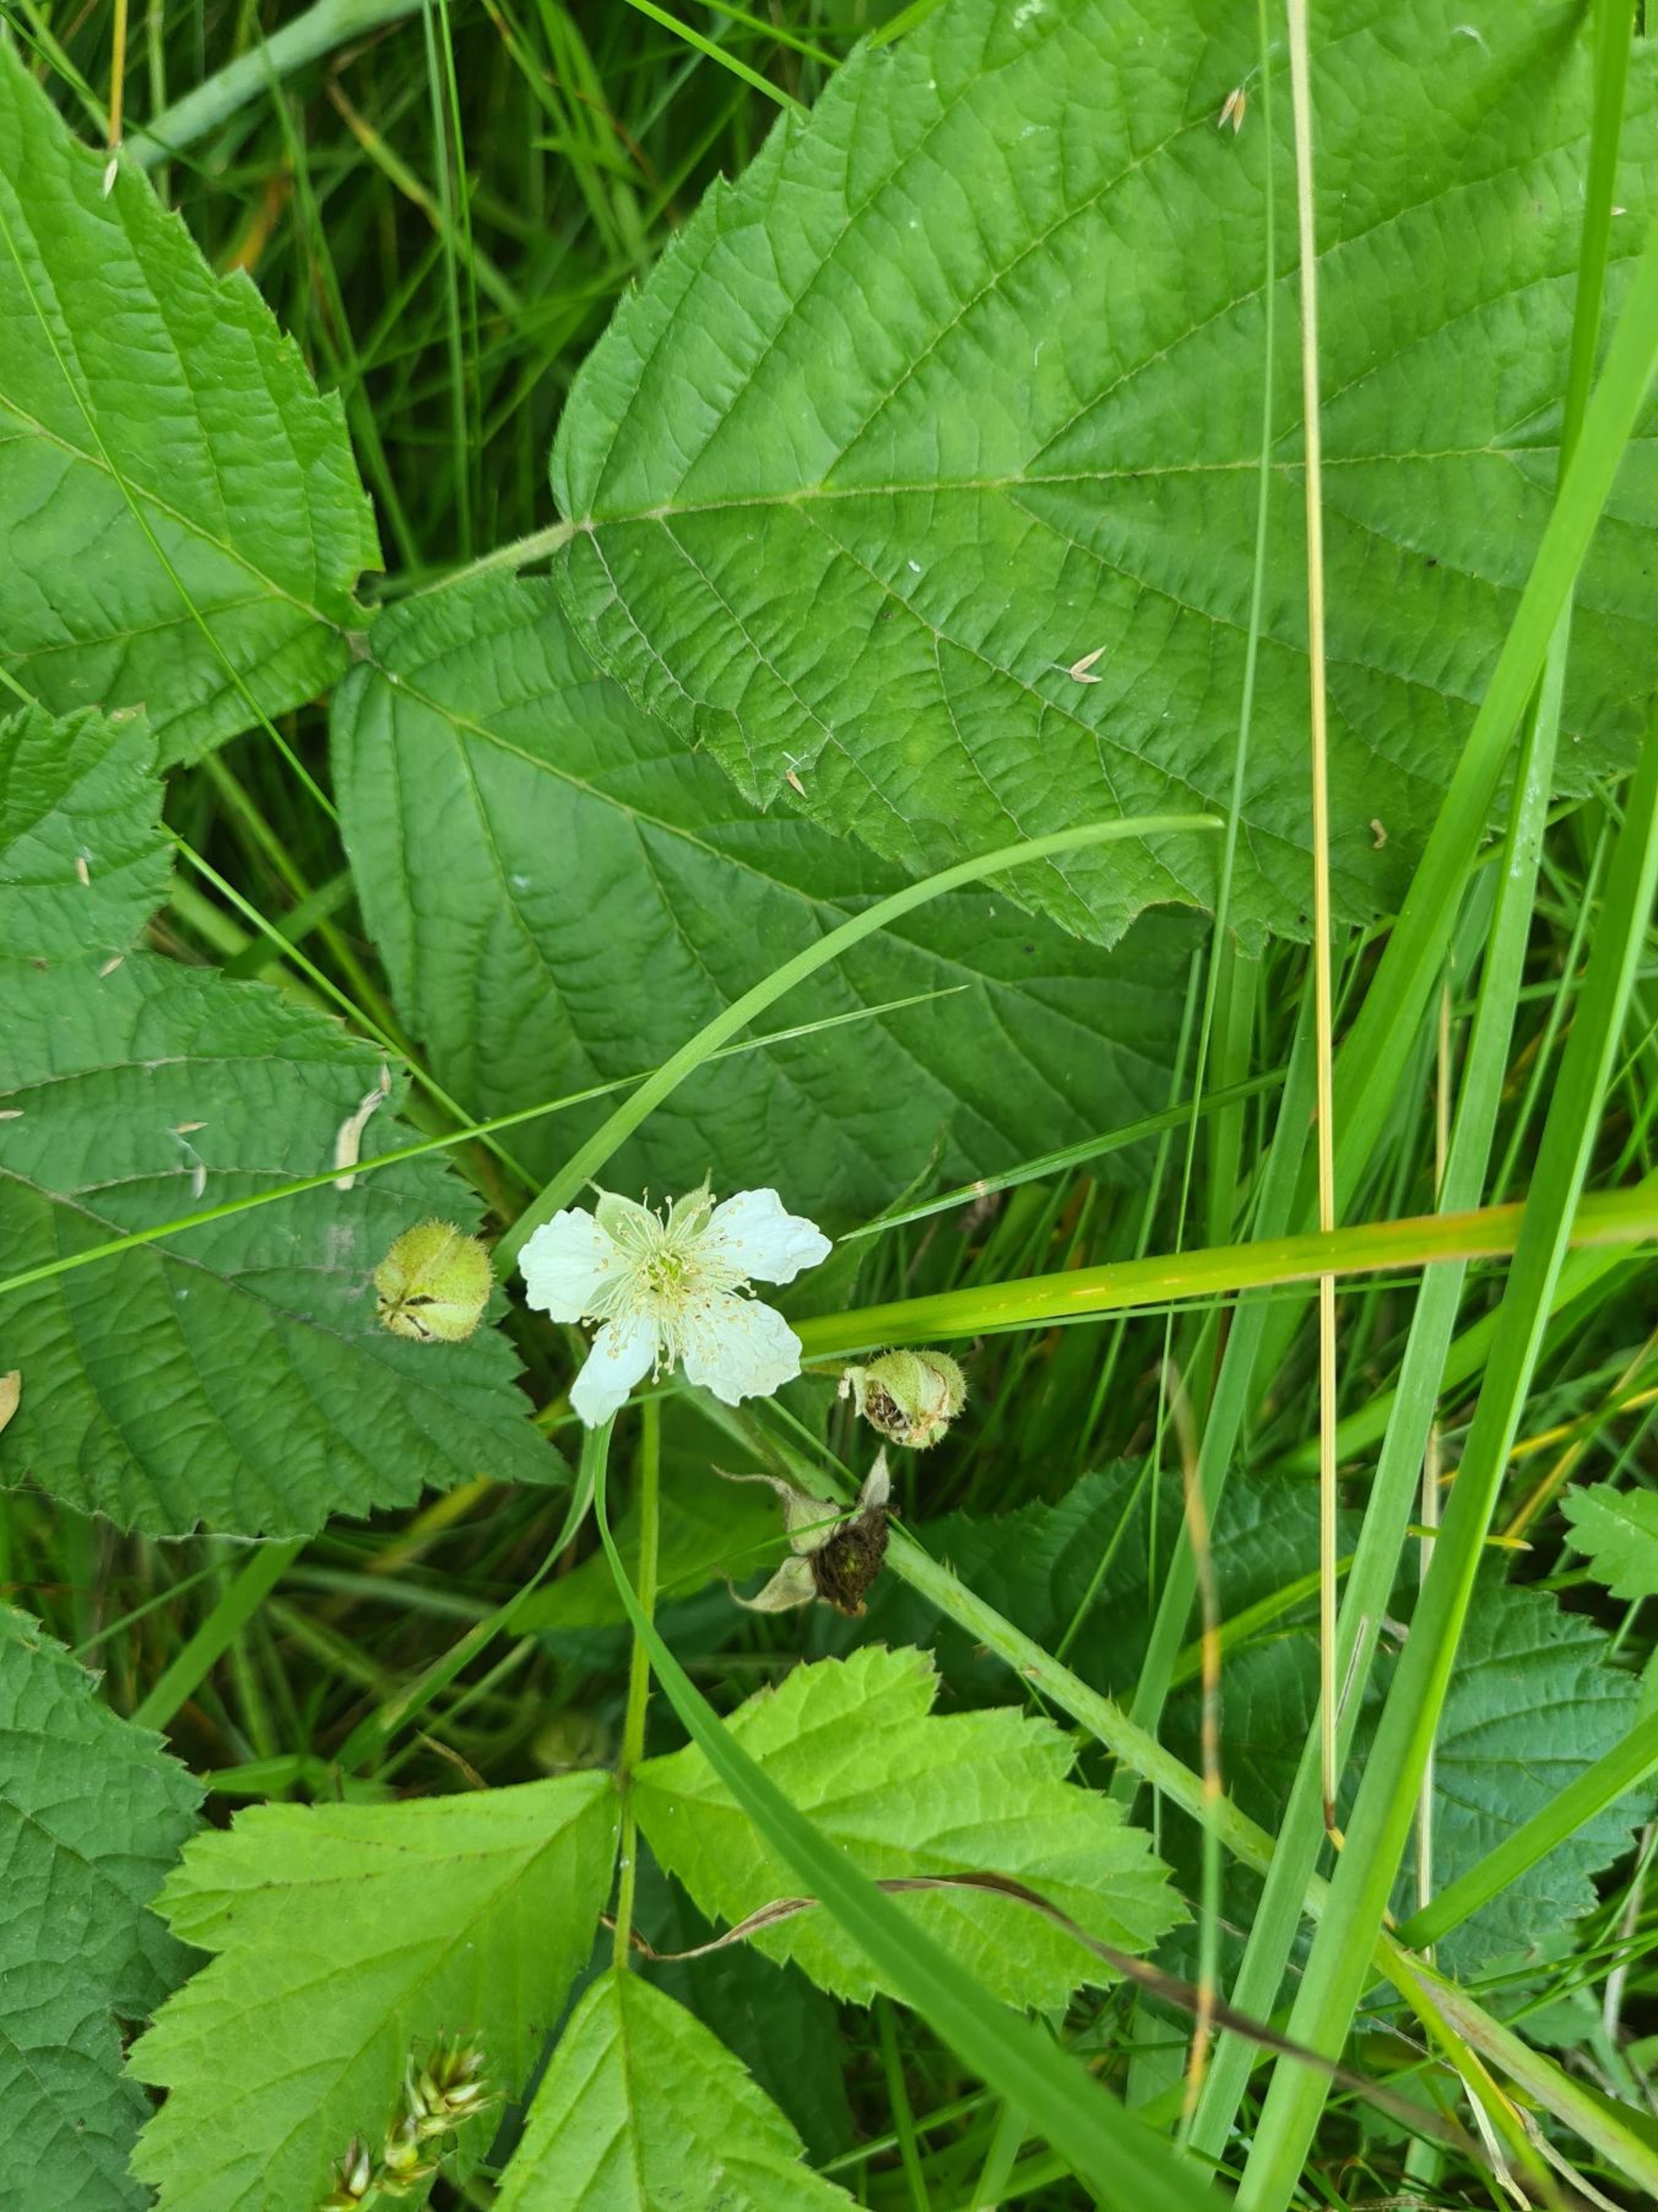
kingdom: Plantae
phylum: Tracheophyta
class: Magnoliopsida
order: Rosales
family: Rosaceae
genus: Rubus
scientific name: Rubus caesius
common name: Korbær
